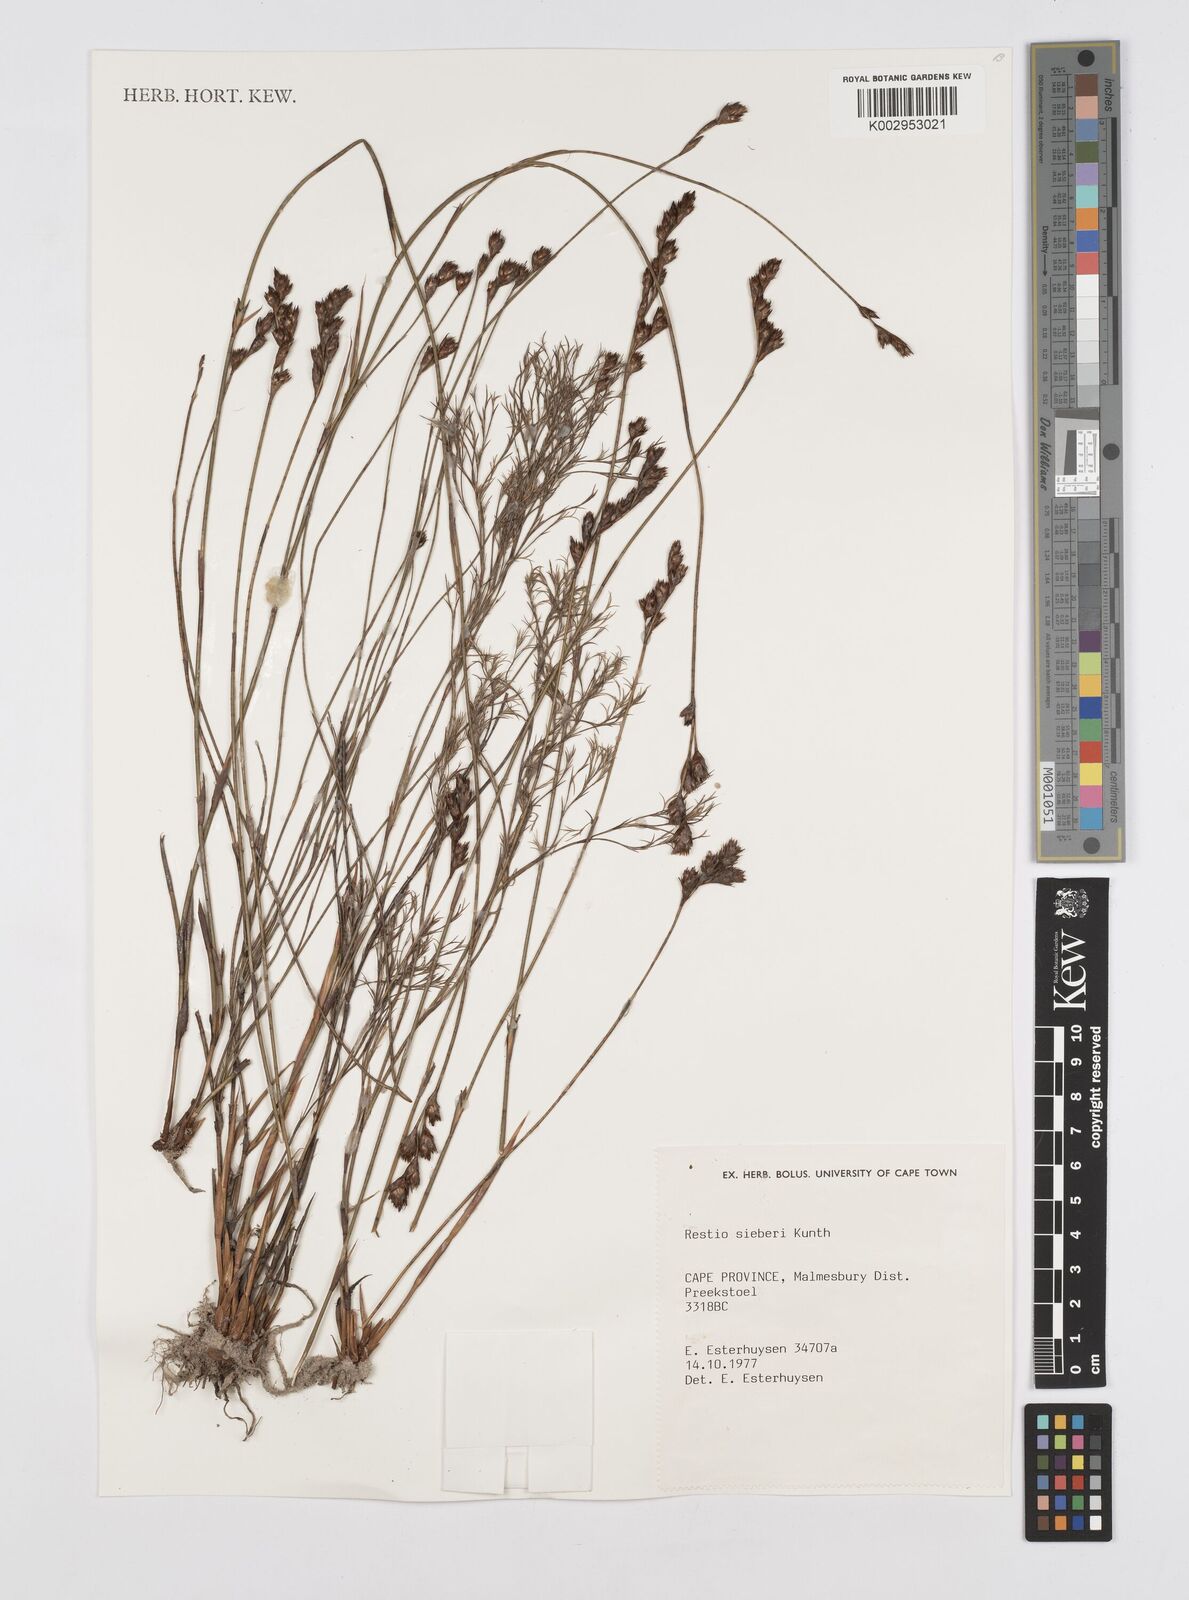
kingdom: Plantae
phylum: Tracheophyta
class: Liliopsida
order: Poales
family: Restionaceae
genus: Restio
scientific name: Restio sieberi
